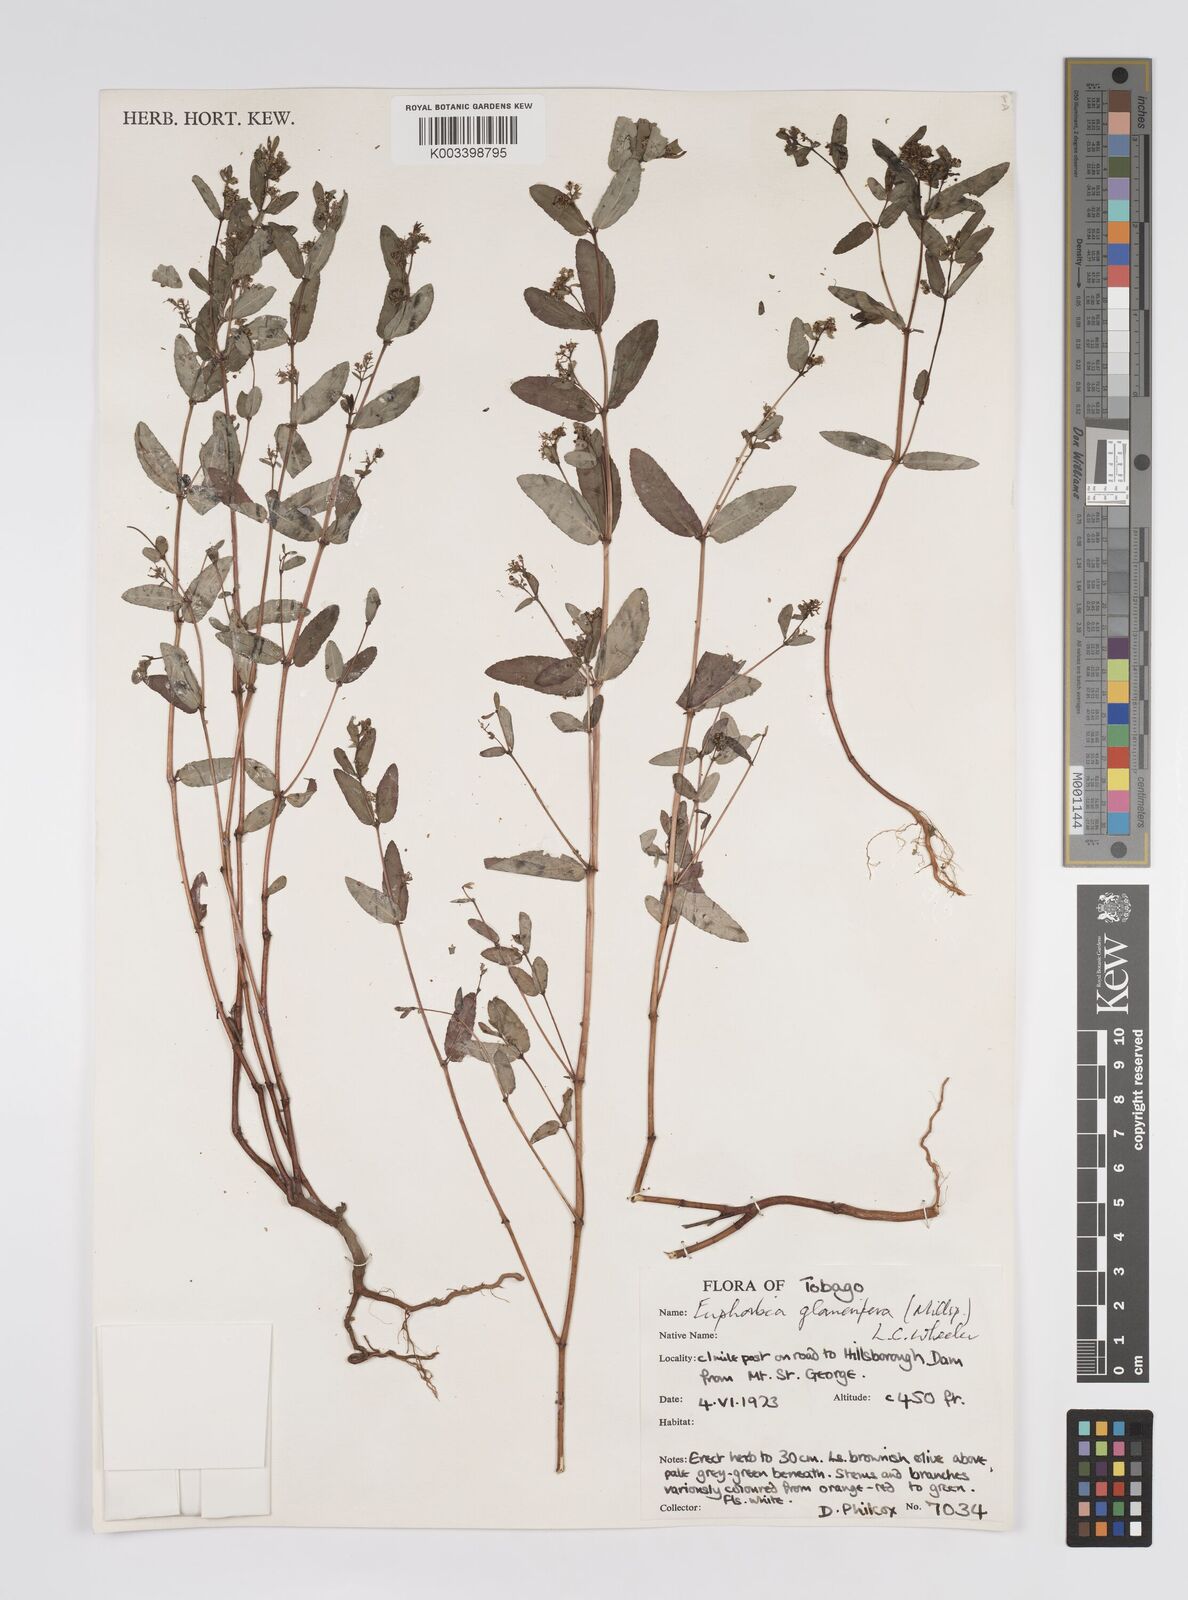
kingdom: Plantae
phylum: Tracheophyta
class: Magnoliopsida
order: Malpighiales
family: Euphorbiaceae
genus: Euphorbia
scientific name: Euphorbia hypericifolia
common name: Graceful sandmat
